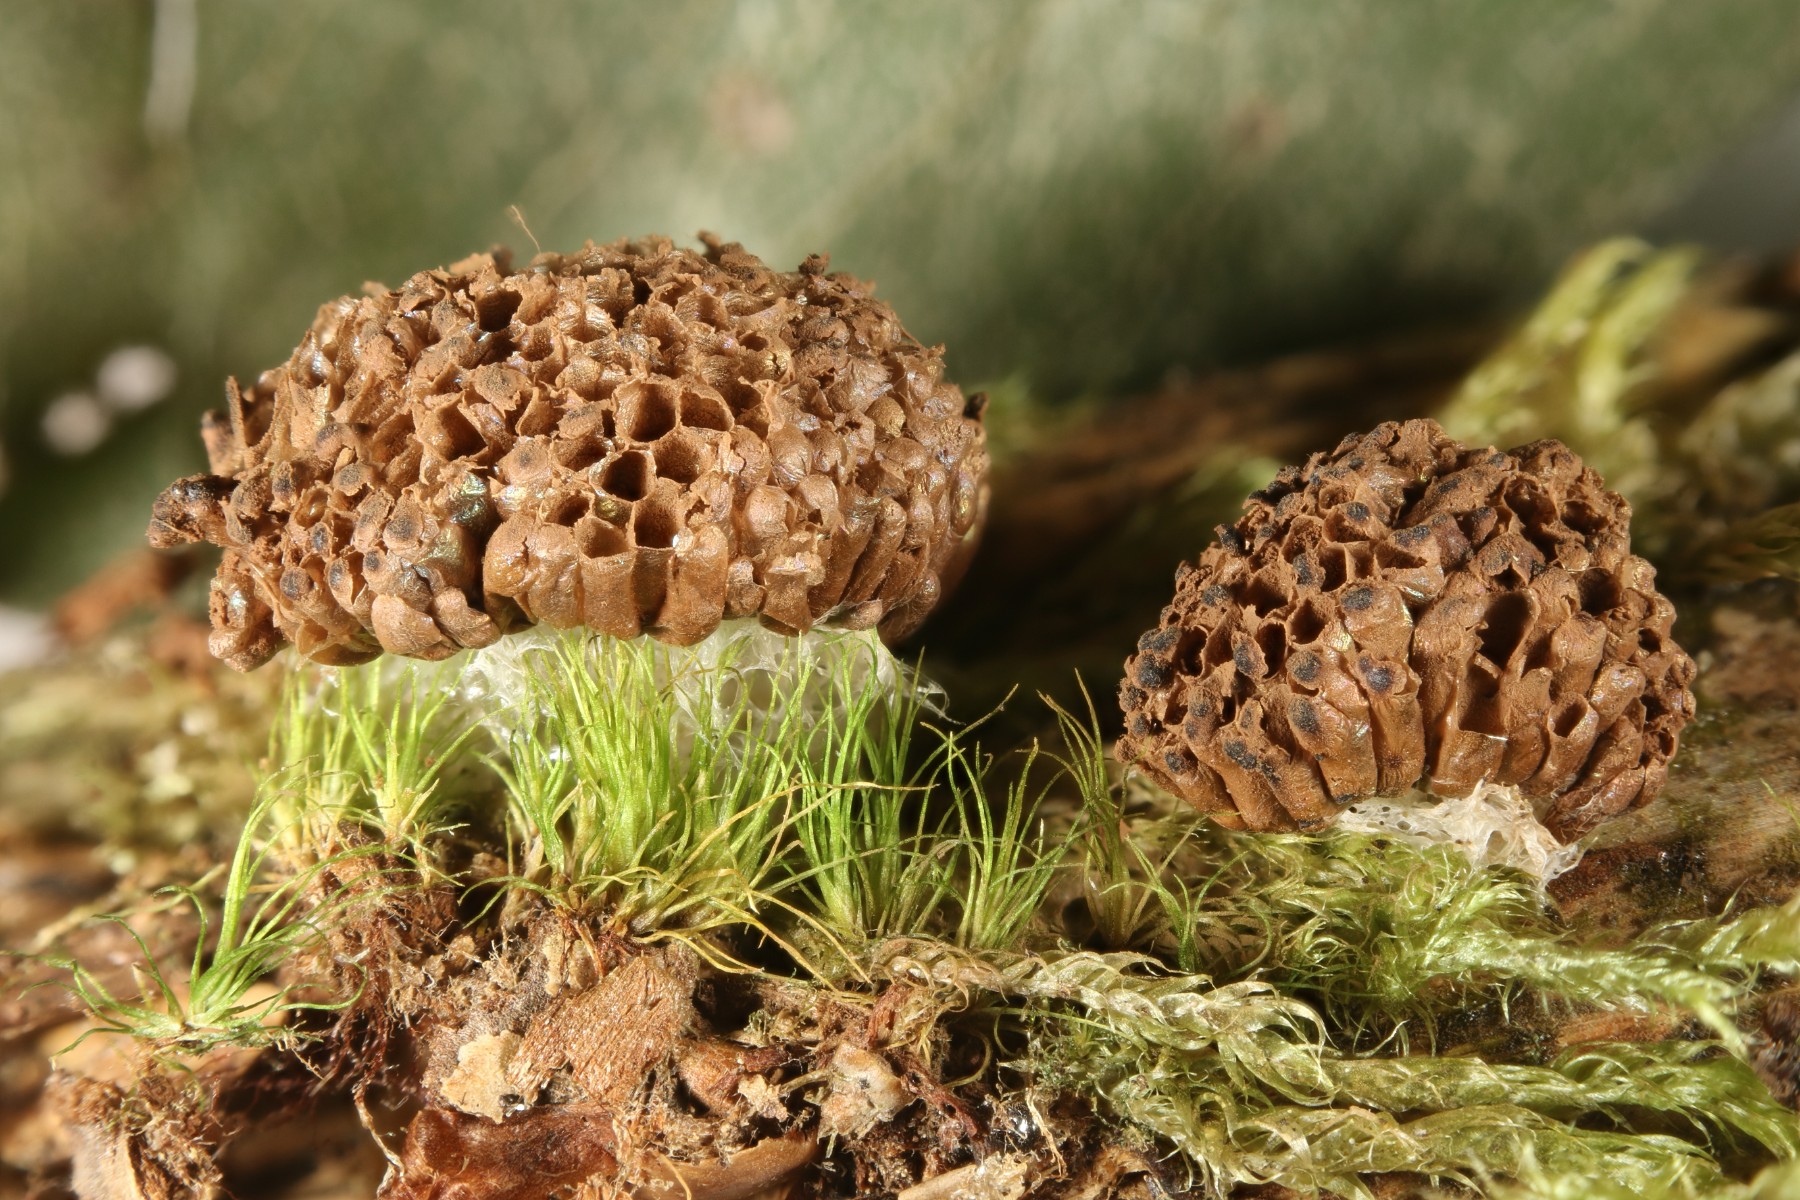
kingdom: Protozoa
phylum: Mycetozoa
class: Myxomycetes
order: Cribrariales
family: Tubiferaceae
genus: Tubifera
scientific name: Tubifera ferruginosa
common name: kanel-støvrør
